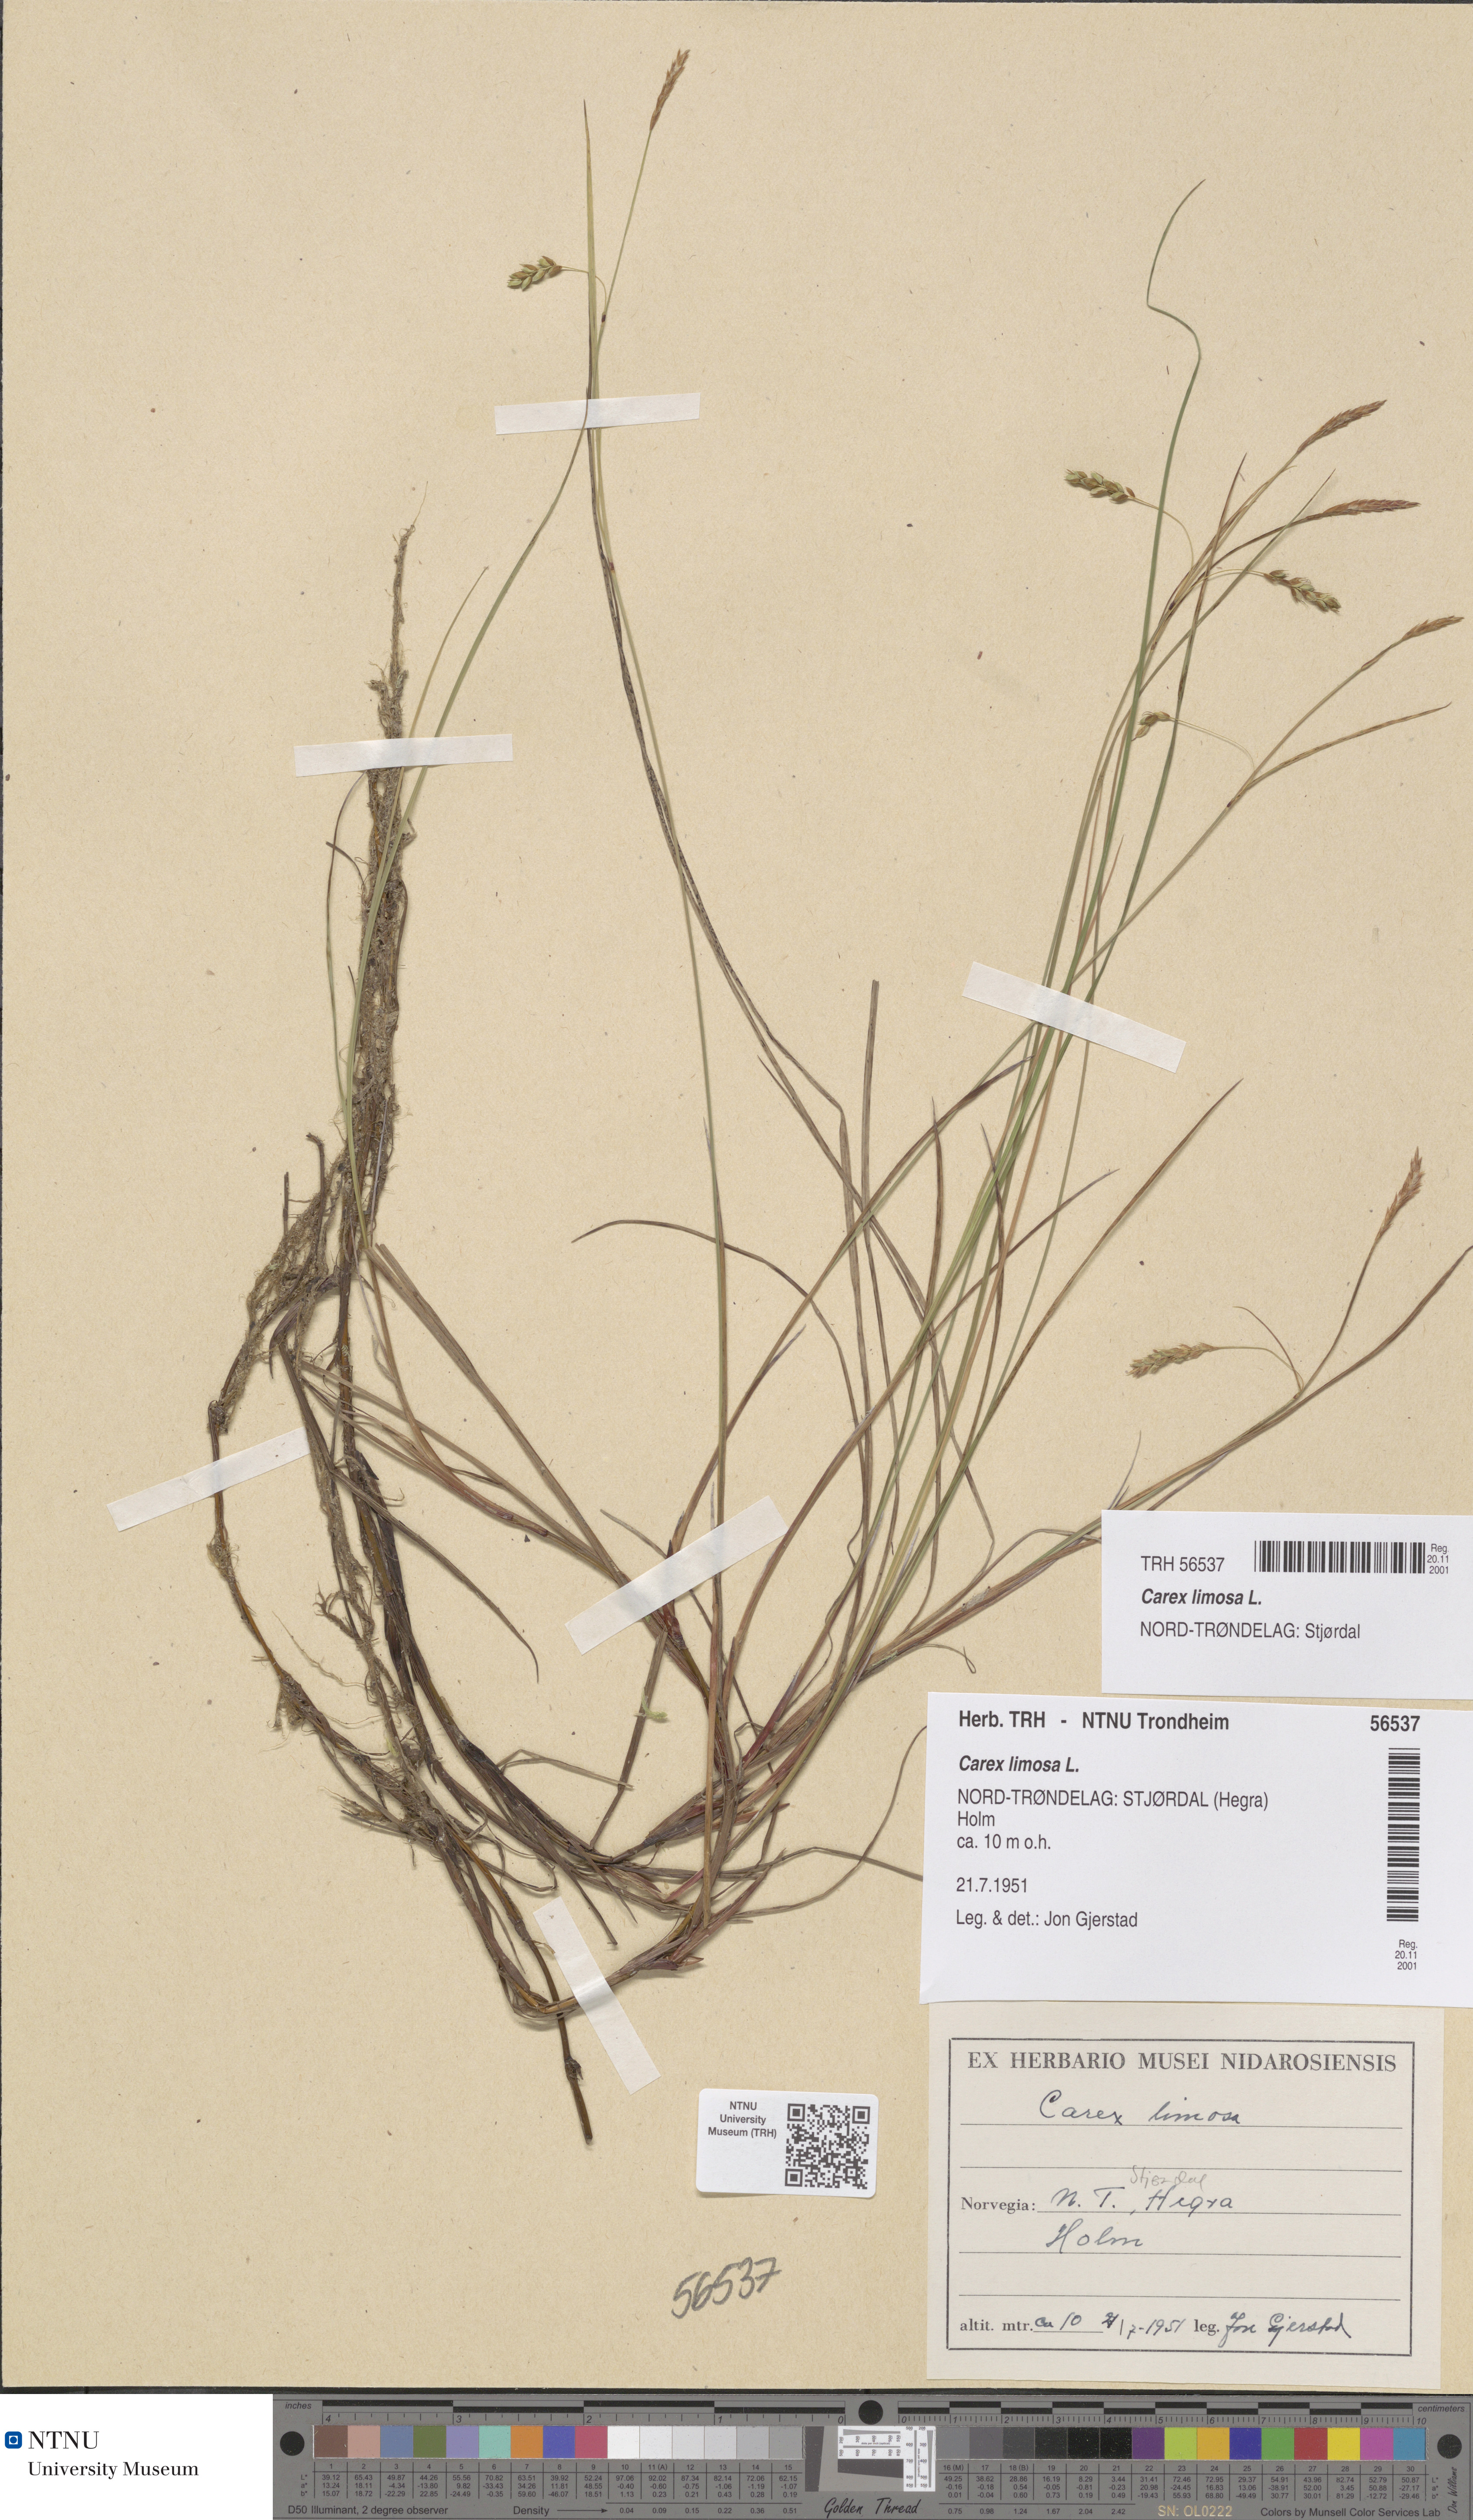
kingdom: Plantae
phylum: Tracheophyta
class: Liliopsida
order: Poales
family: Cyperaceae
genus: Carex
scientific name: Carex limosa
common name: Bog sedge
